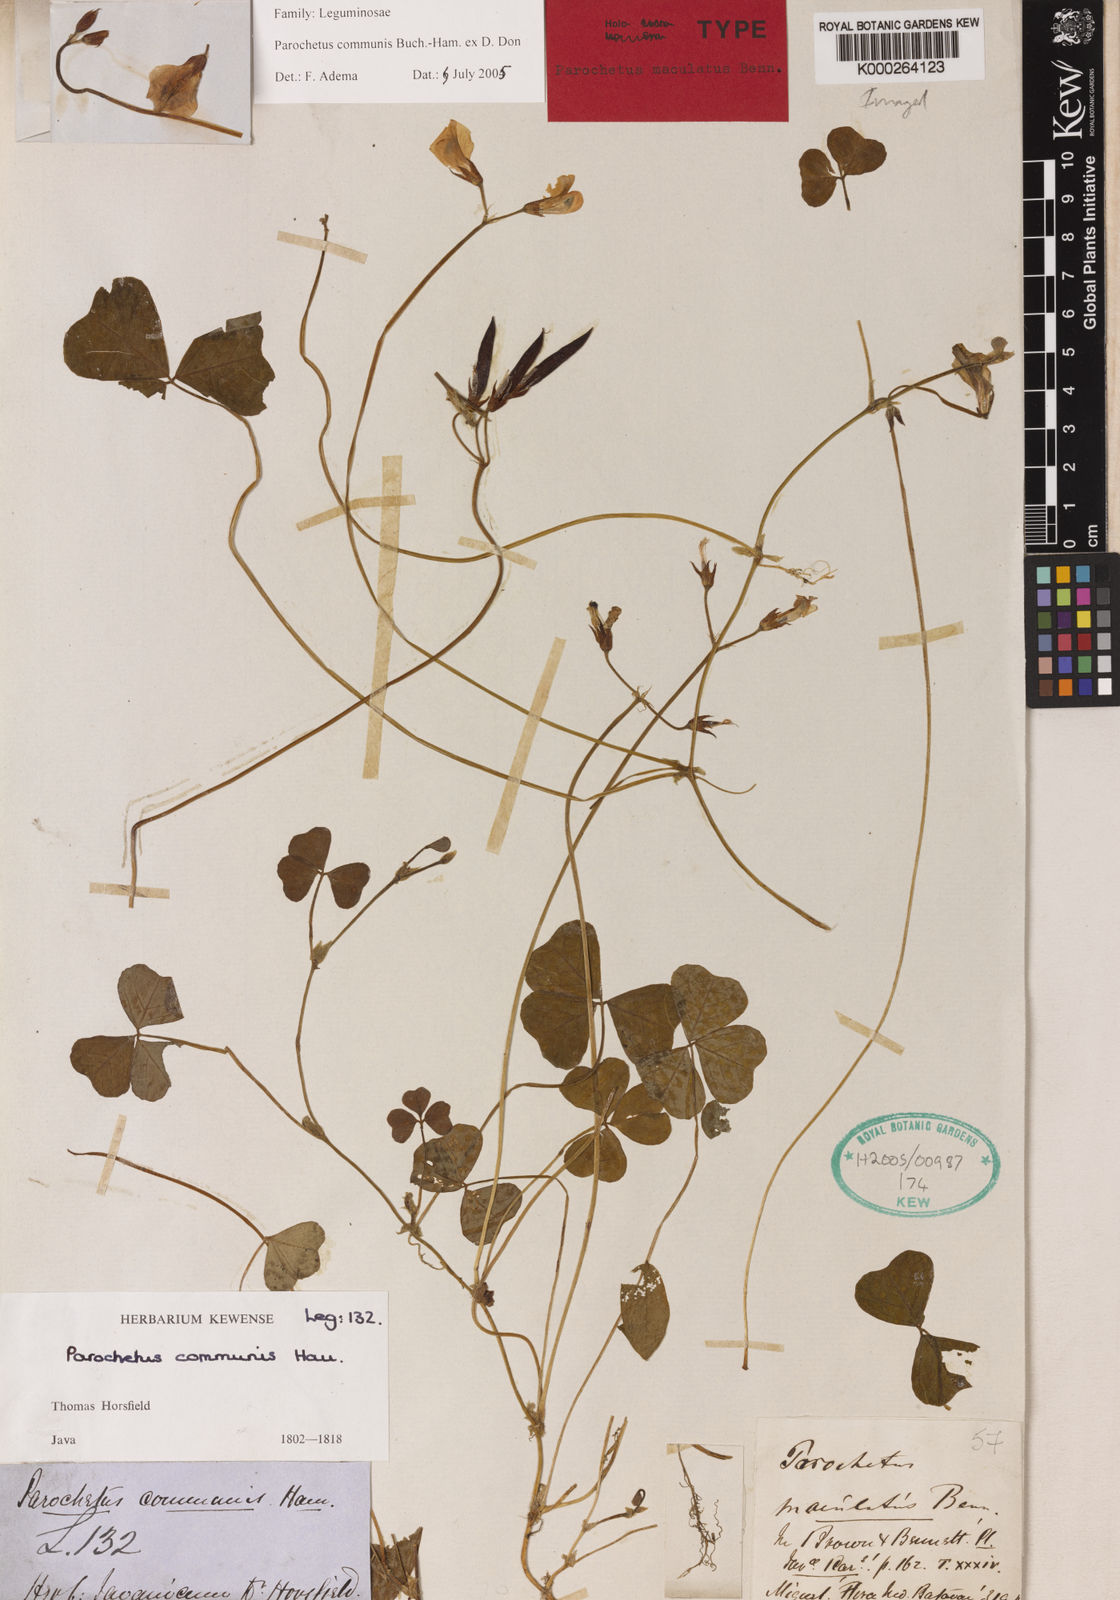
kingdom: Plantae
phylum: Tracheophyta
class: Magnoliopsida
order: Fabales
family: Fabaceae
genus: Parochetus
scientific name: Parochetus communis
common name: Blue oxalis
